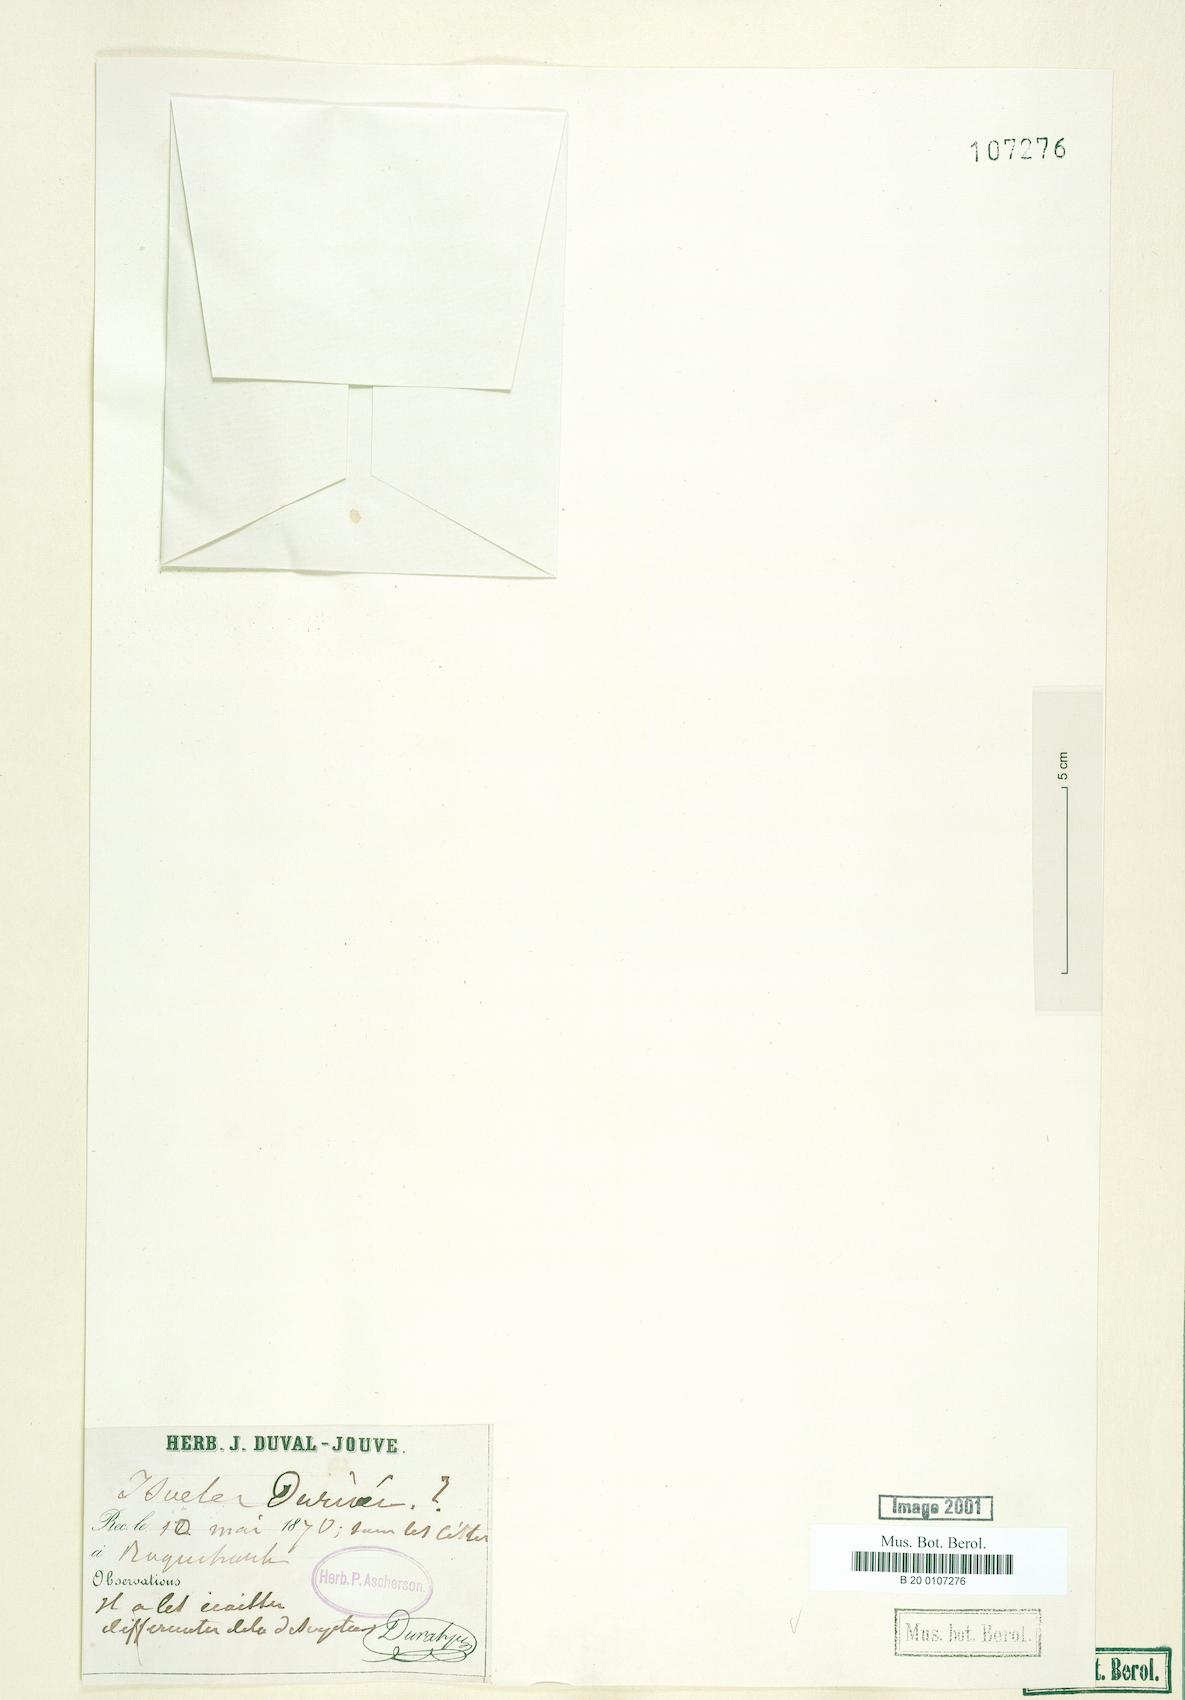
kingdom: Plantae
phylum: Tracheophyta
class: Lycopodiopsida
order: Isoetales
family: Isoetaceae
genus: Isoetes
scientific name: Isoetes duriei
